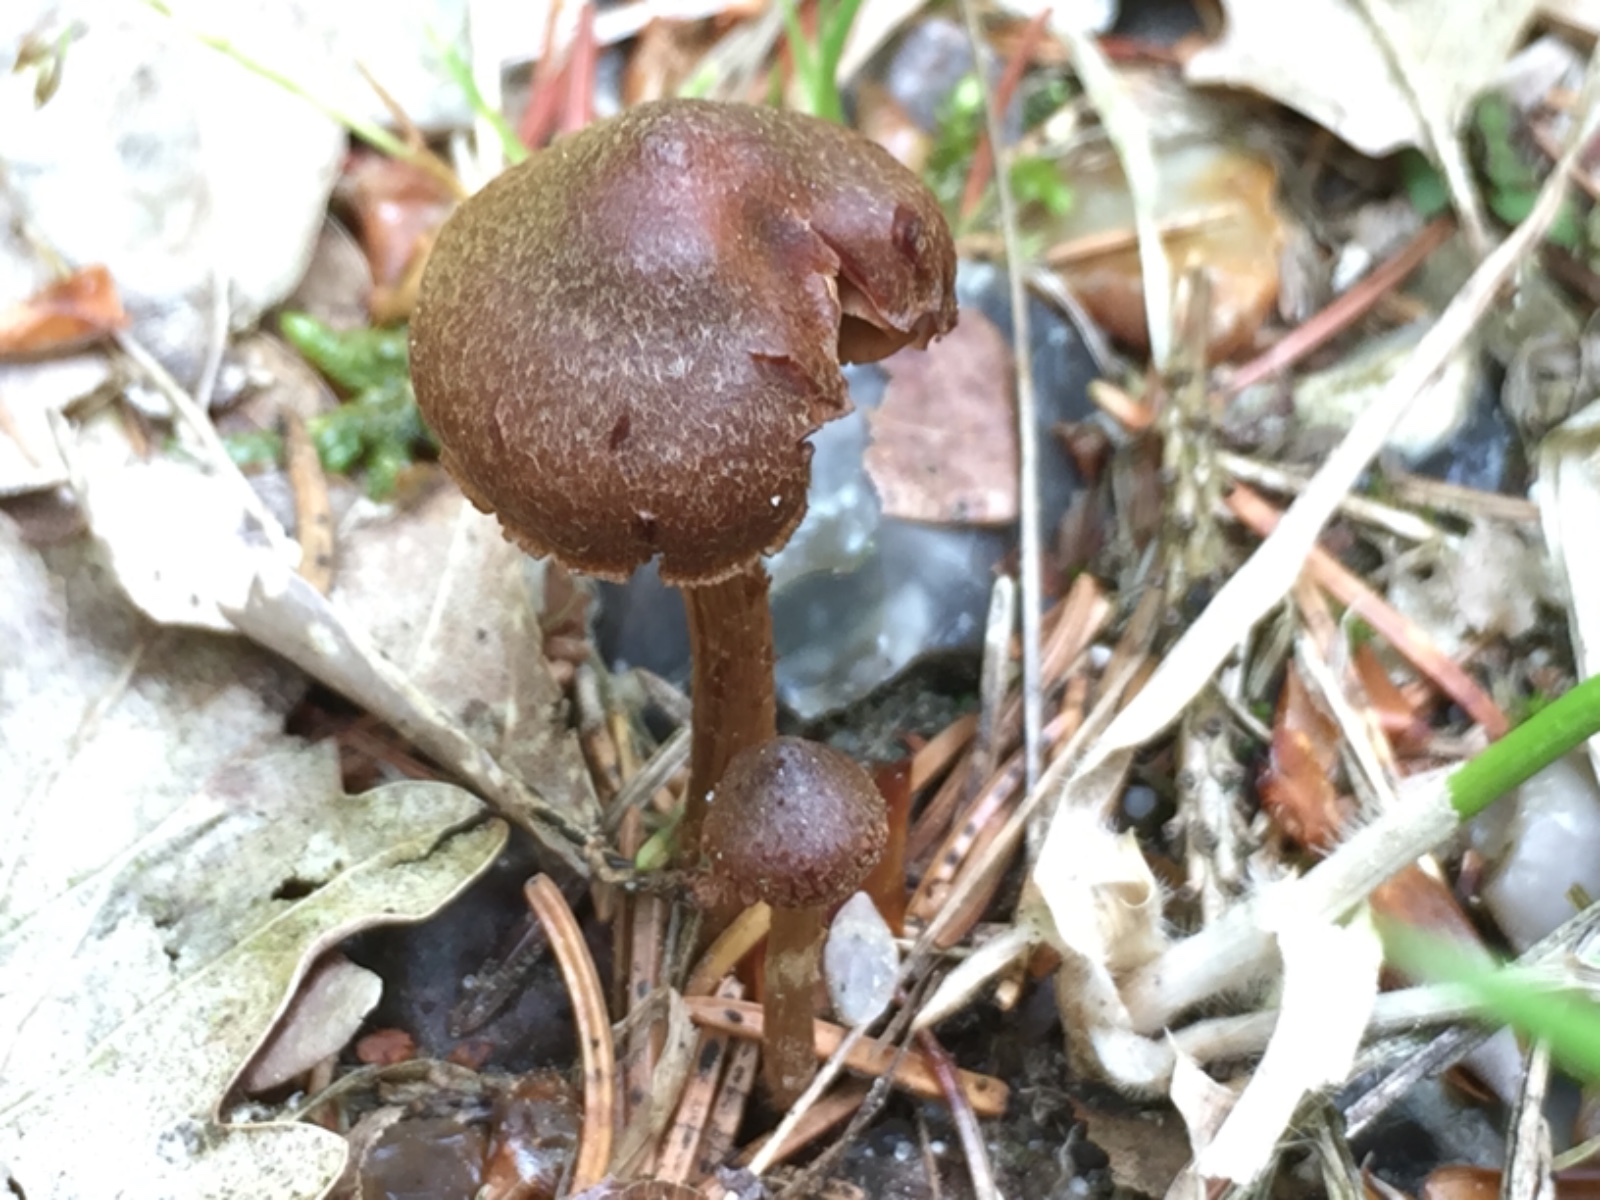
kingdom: Fungi
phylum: Basidiomycota
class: Agaricomycetes
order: Agaricales
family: Cortinariaceae
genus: Cortinarius
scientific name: Cortinarius denigratoides
